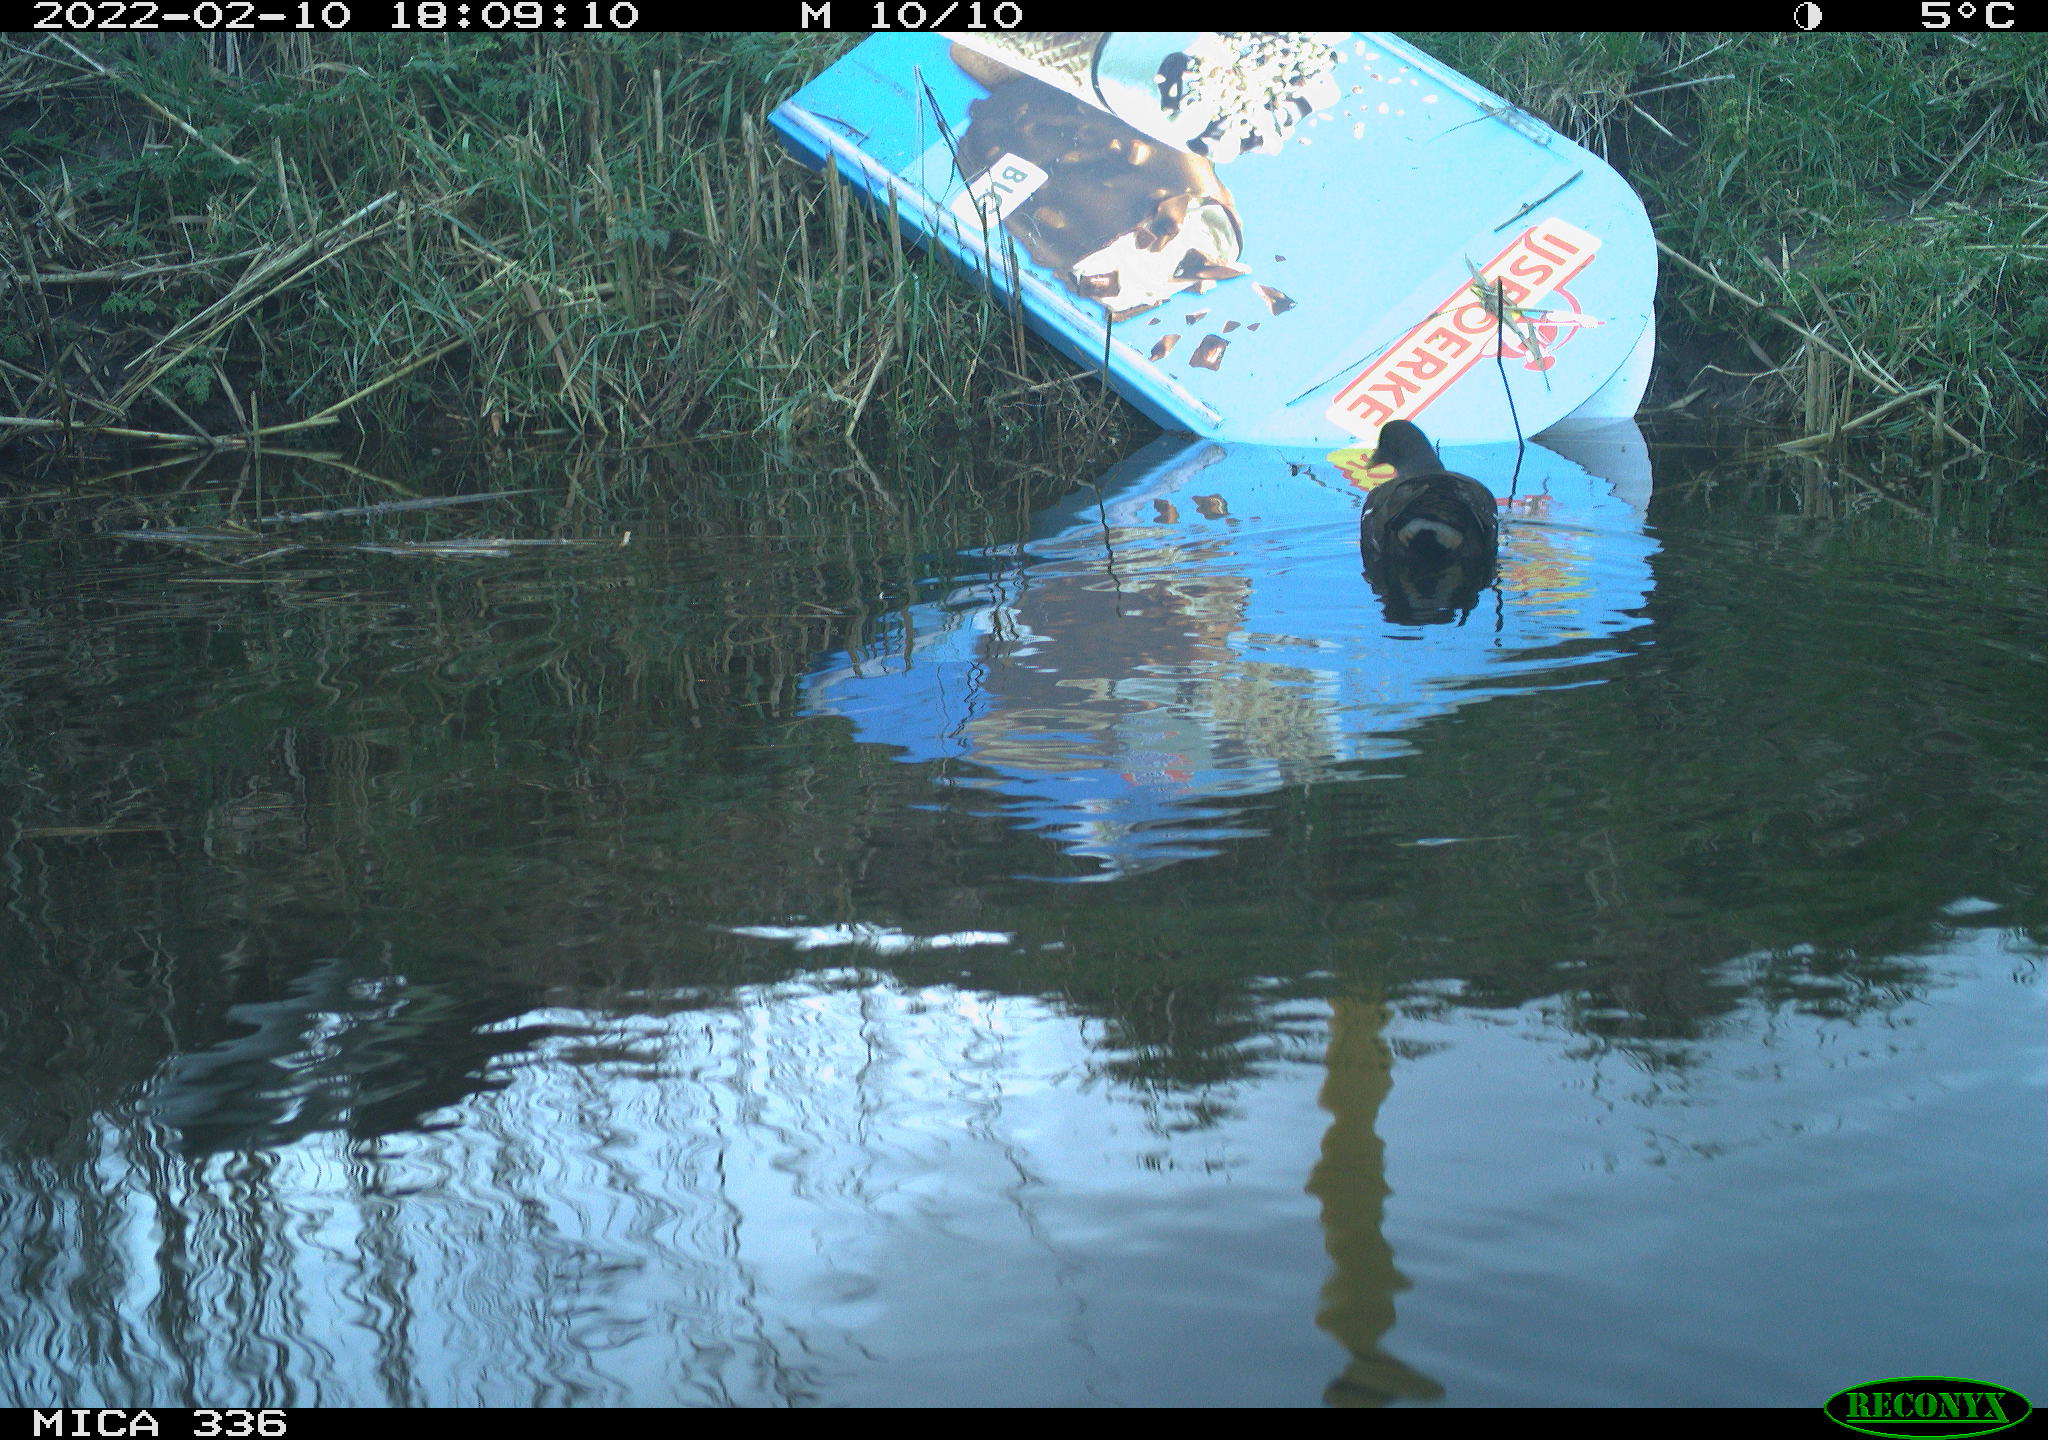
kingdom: Animalia
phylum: Chordata
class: Aves
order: Gruiformes
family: Rallidae
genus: Gallinula
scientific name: Gallinula chloropus
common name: Common moorhen
